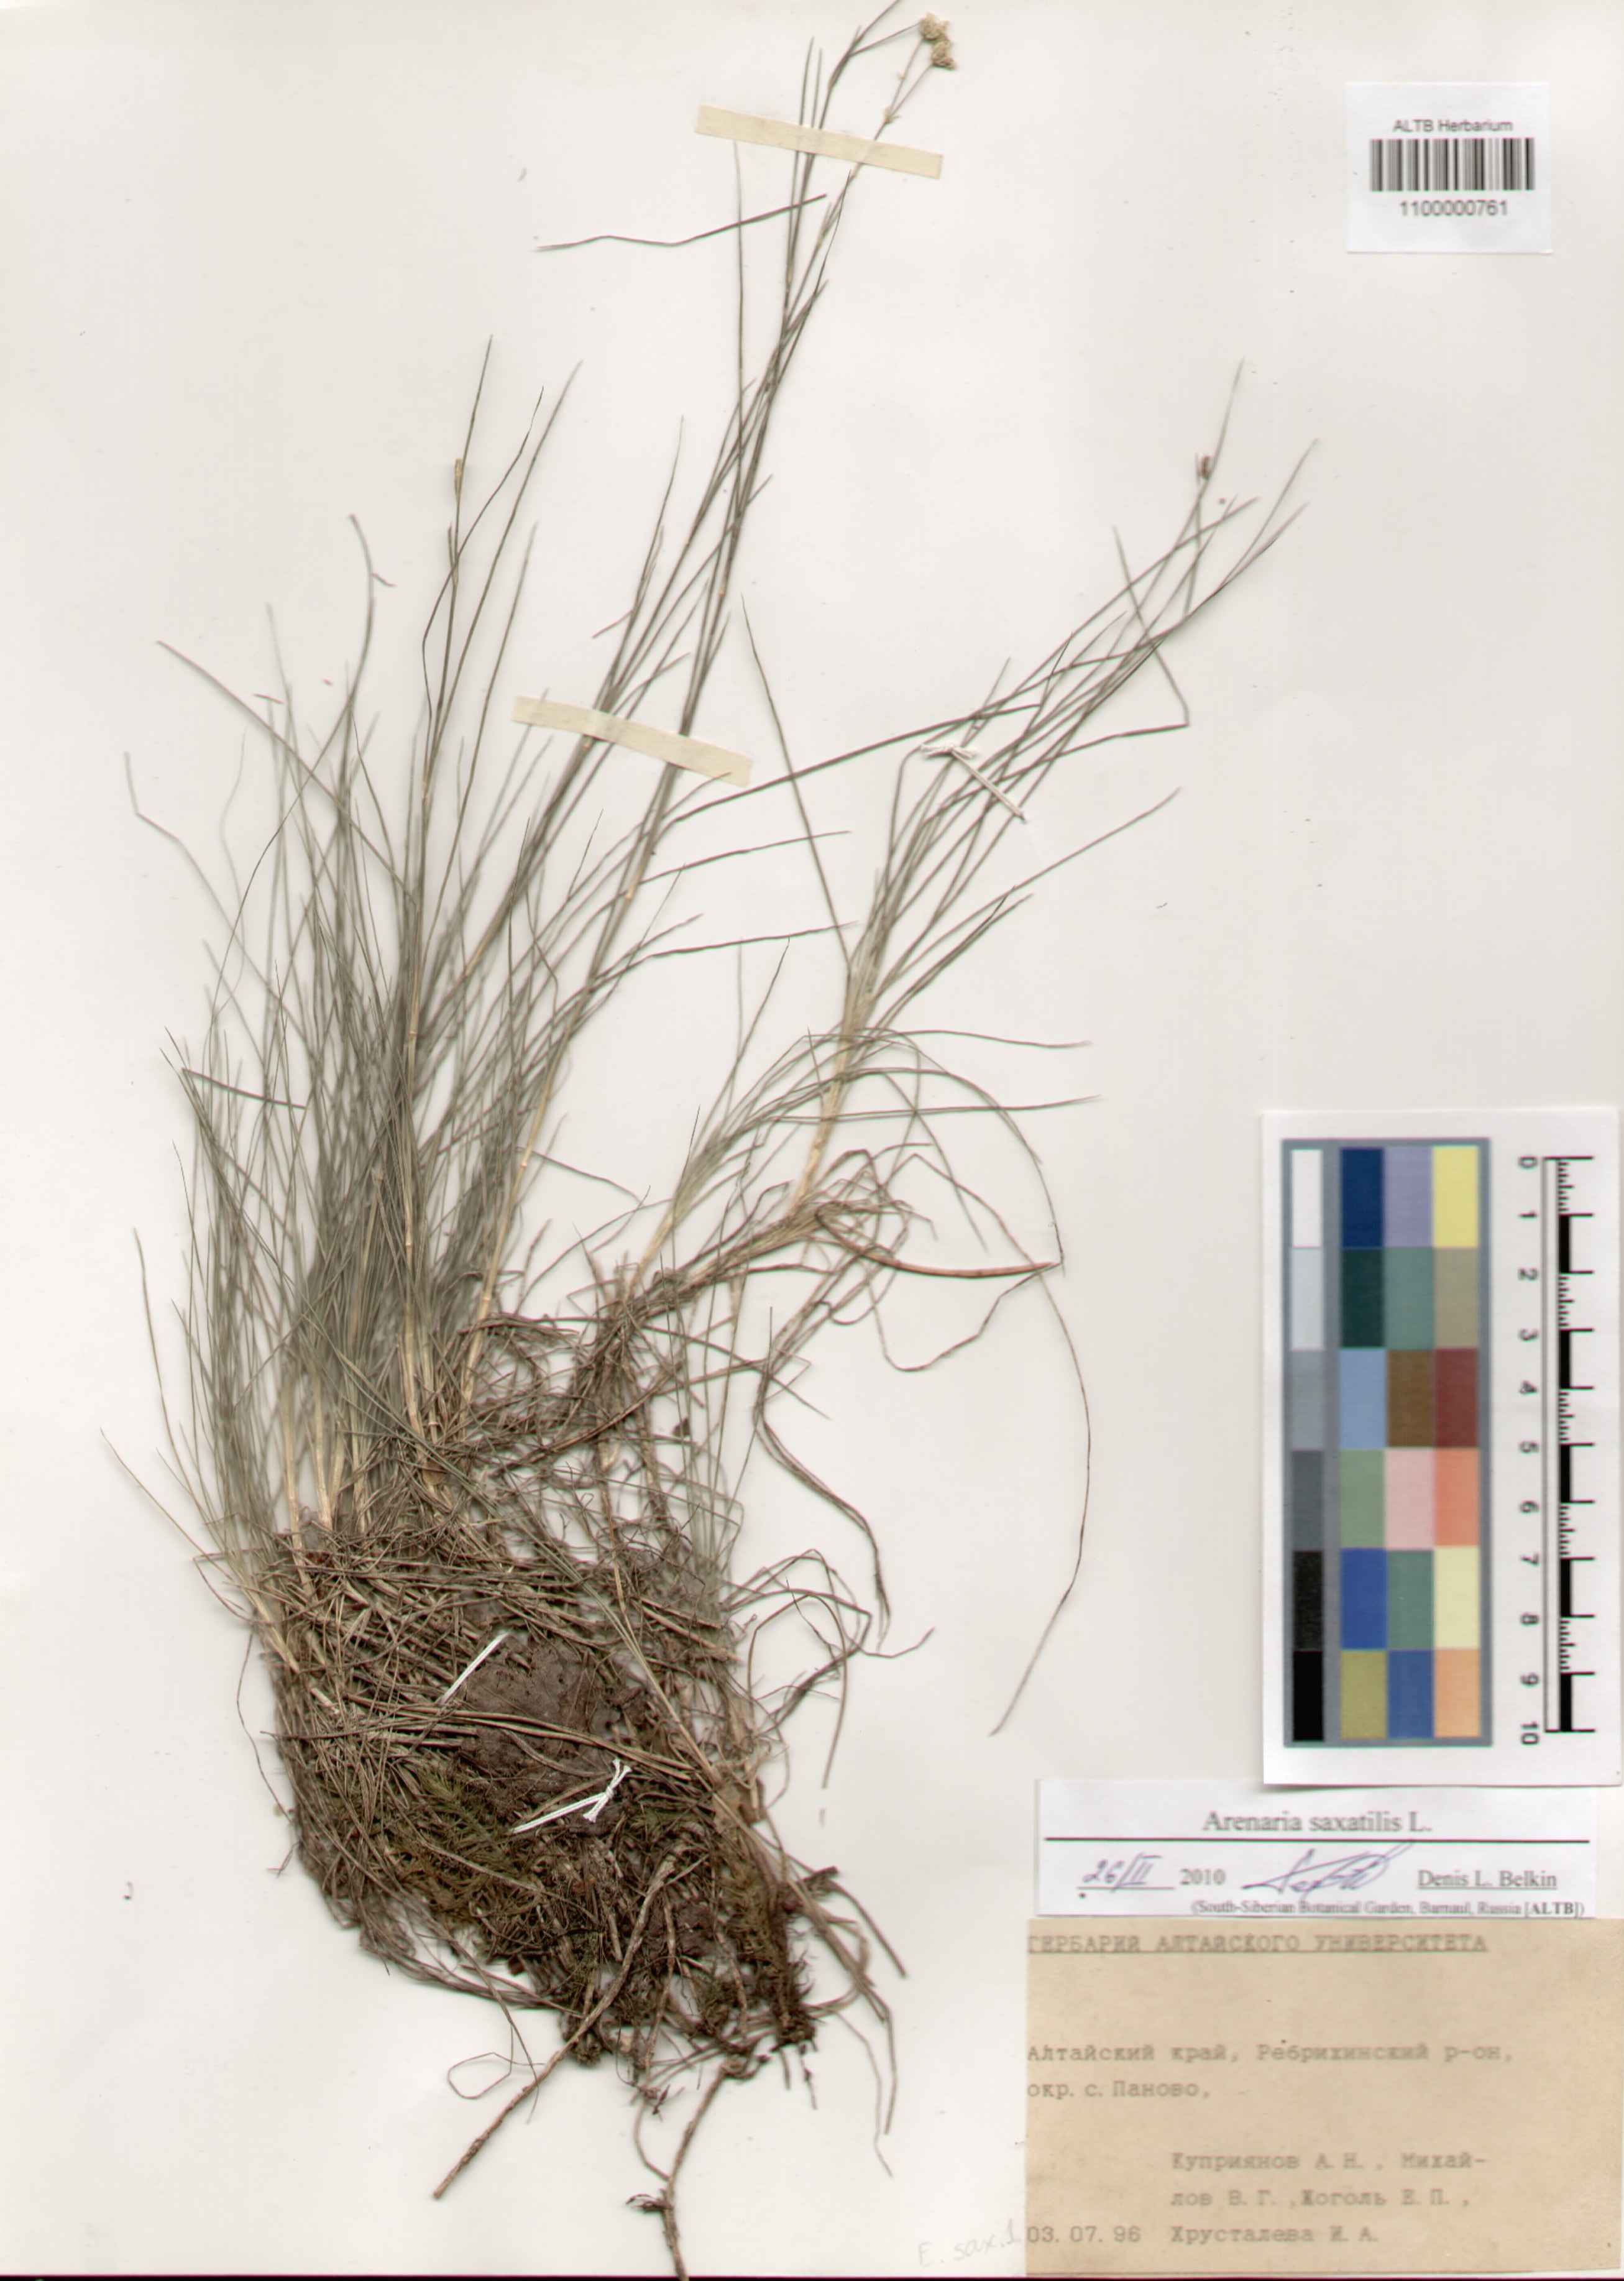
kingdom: Plantae
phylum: Tracheophyta
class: Magnoliopsida
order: Caryophyllales
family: Caryophyllaceae
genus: Eremogone
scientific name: Eremogone saxatilis
